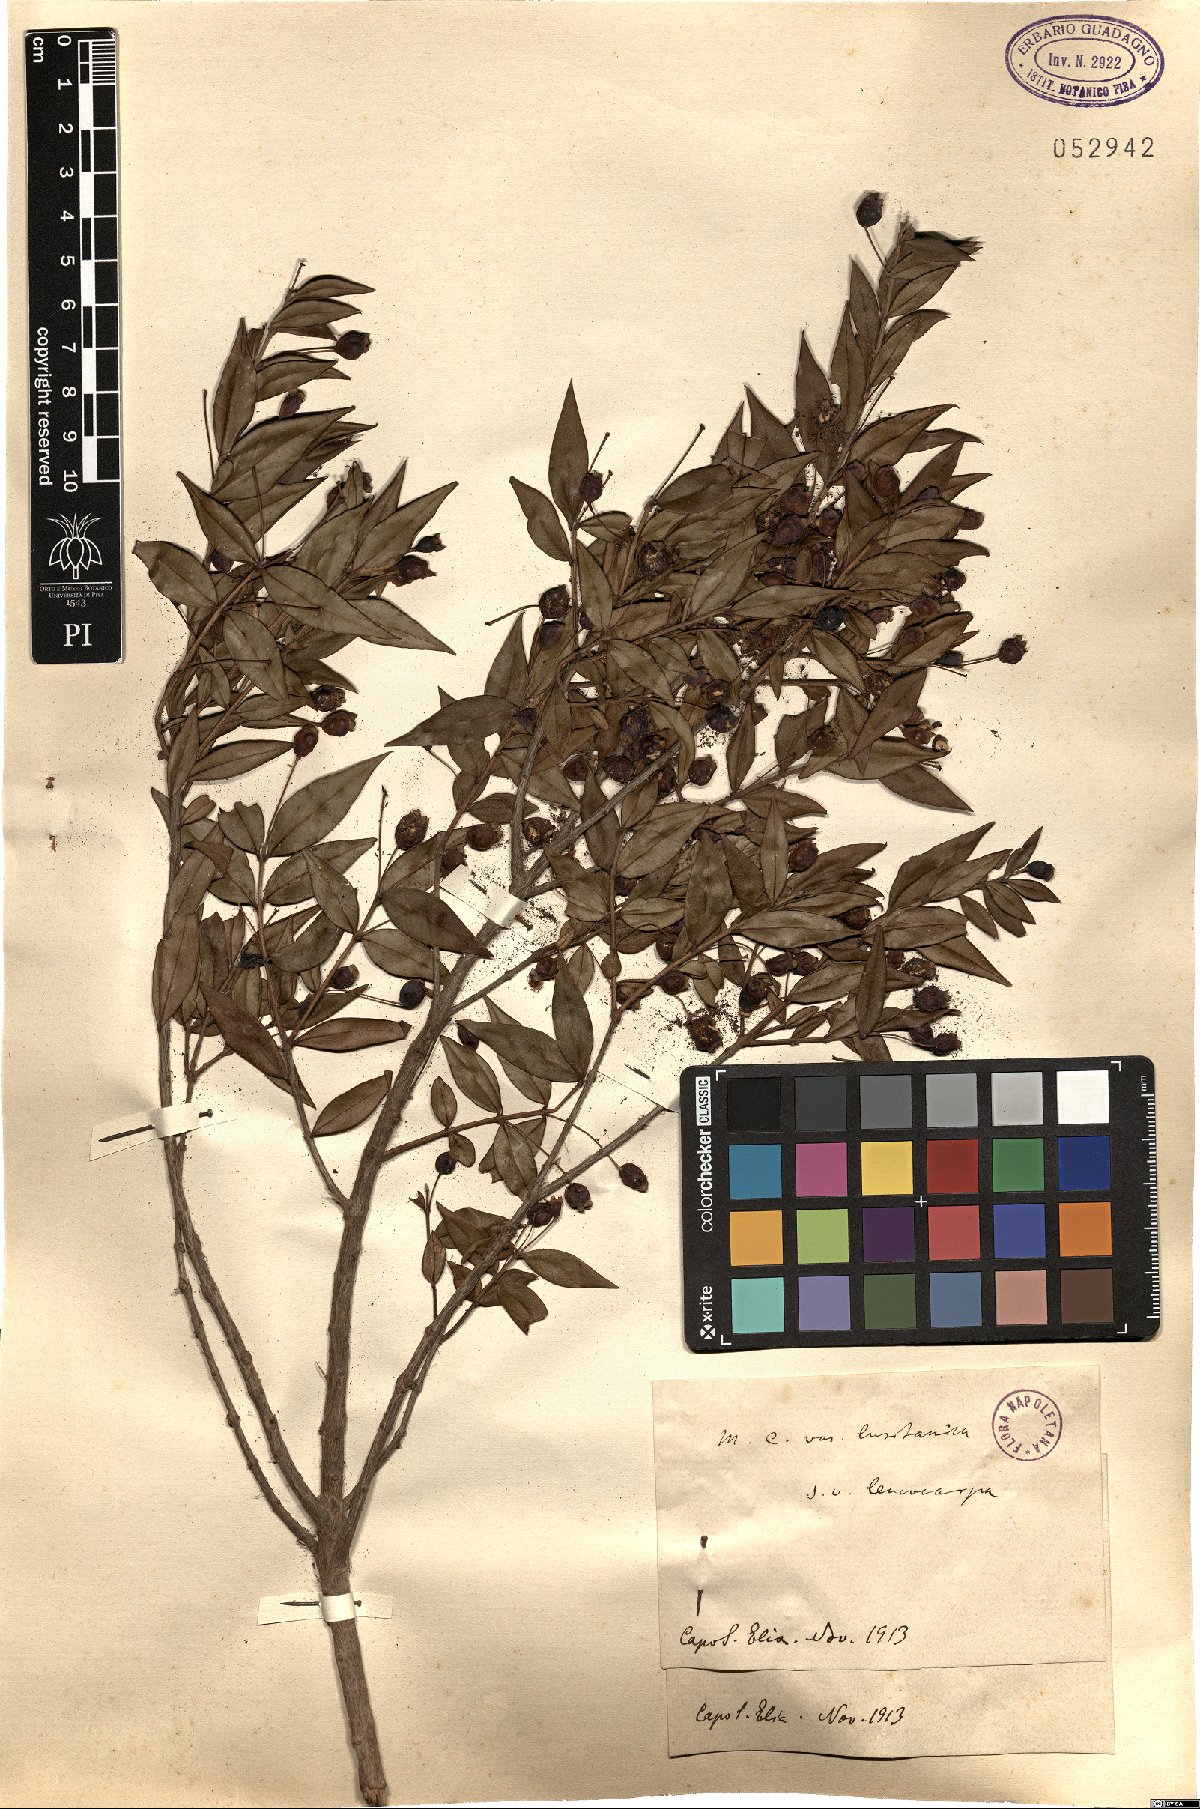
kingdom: Plantae
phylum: Tracheophyta
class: Magnoliopsida
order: Myrtales
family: Myrtaceae
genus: Myrtus
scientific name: Myrtus communis
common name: Myrtle
